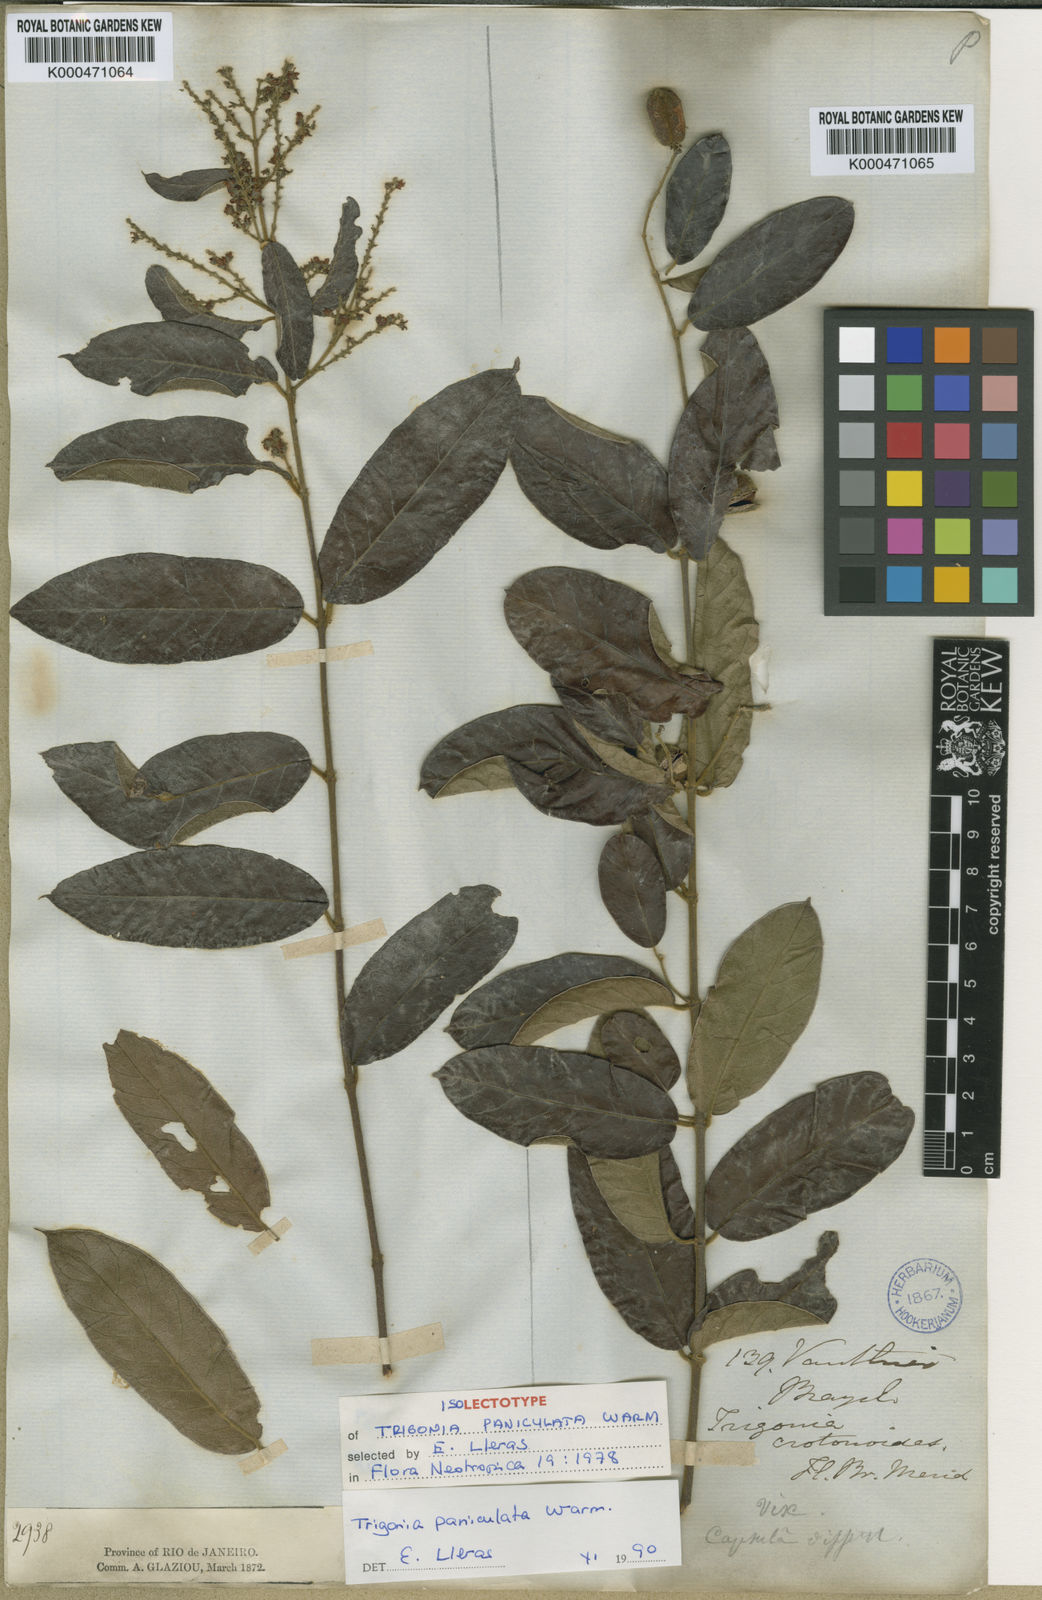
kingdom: Plantae
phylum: Tracheophyta
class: Magnoliopsida
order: Malpighiales
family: Trigoniaceae
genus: Trigonia
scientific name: Trigonia paniculata
